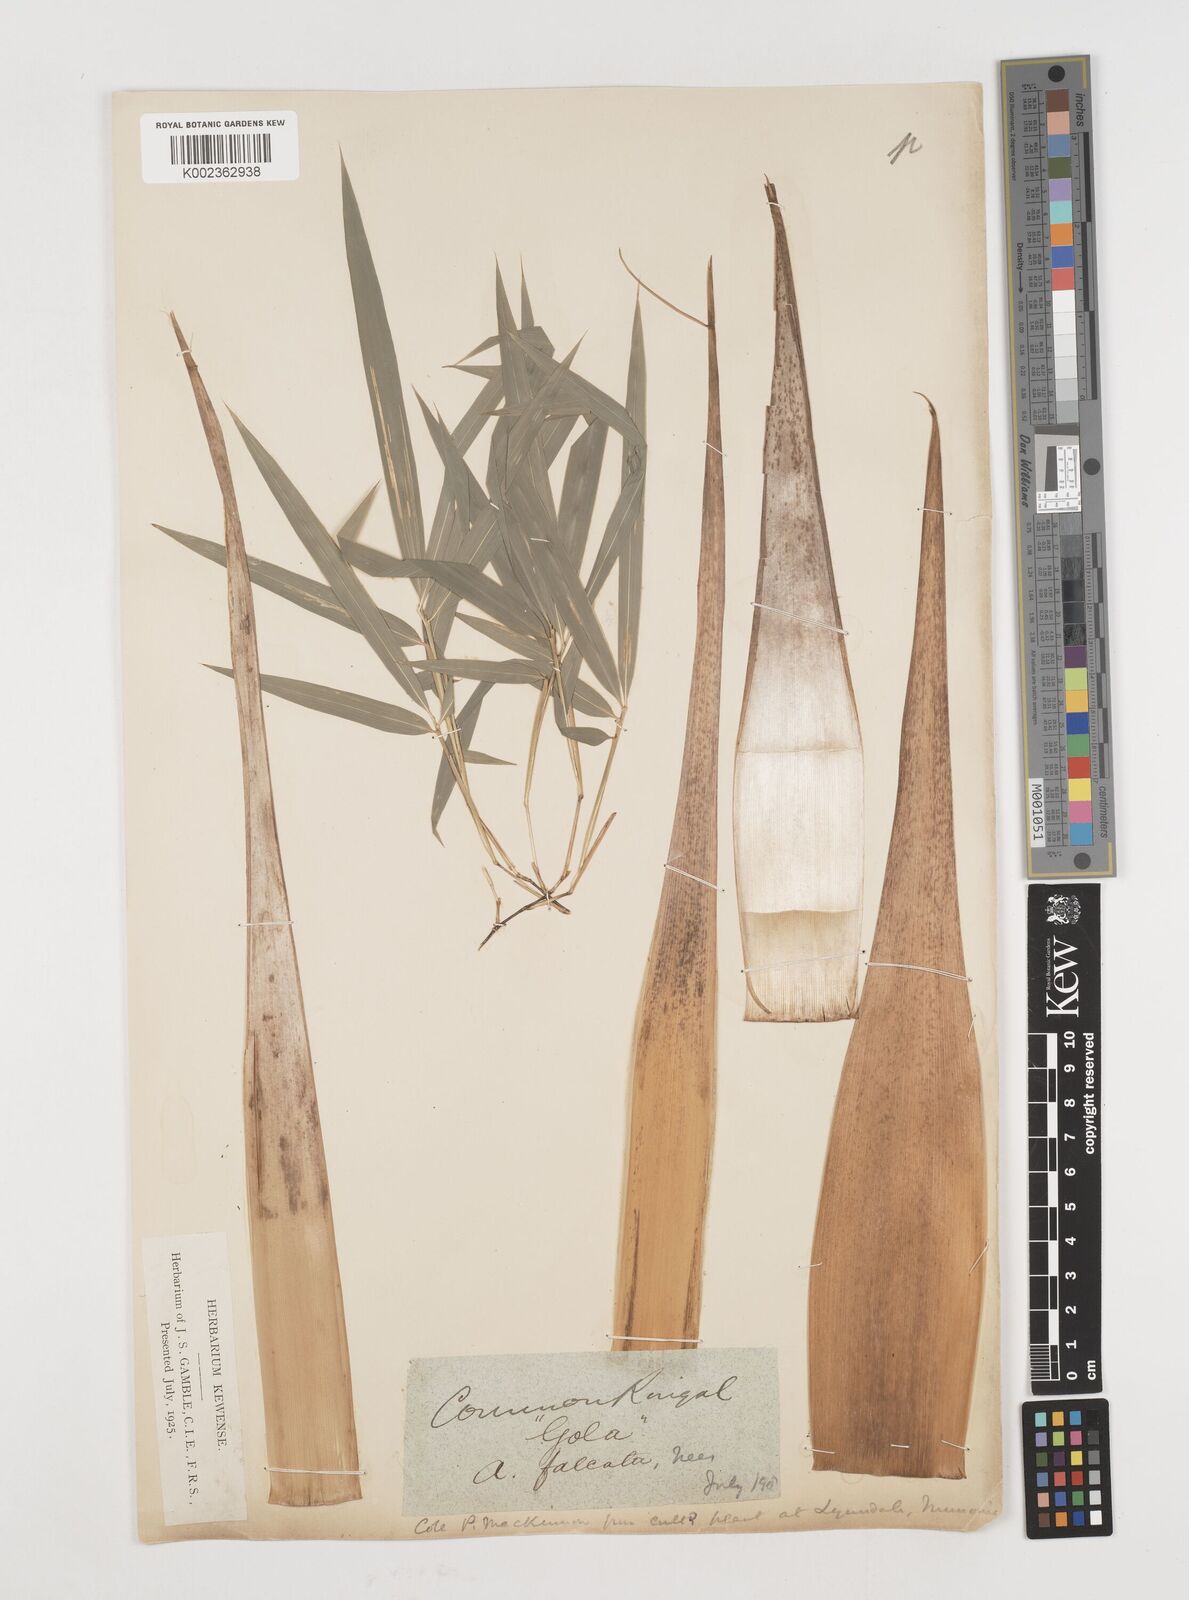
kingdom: Plantae
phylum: Tracheophyta
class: Liliopsida
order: Poales
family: Poaceae
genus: Drepanostachyum
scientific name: Drepanostachyum falcatum
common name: Himalayan bamboo
